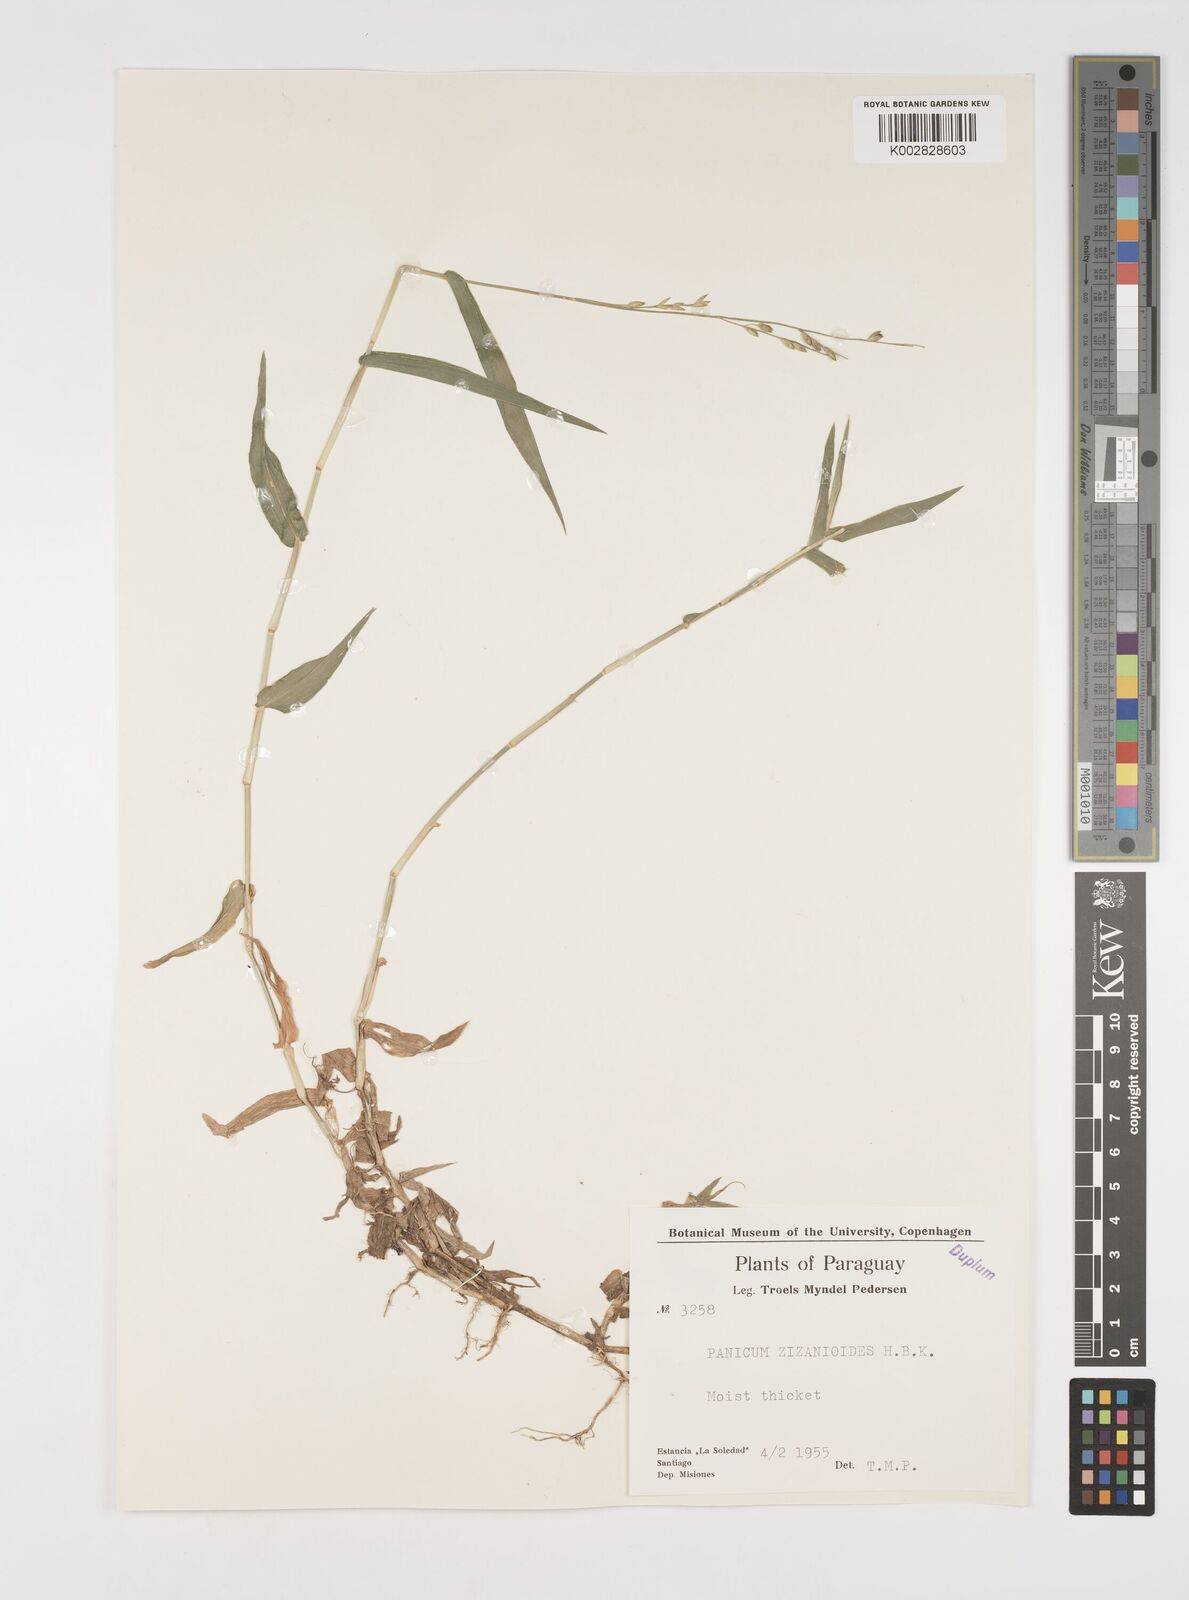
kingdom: Plantae
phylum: Tracheophyta
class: Liliopsida
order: Poales
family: Poaceae
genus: Acroceras
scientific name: Acroceras zizanioides
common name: Oat grass
